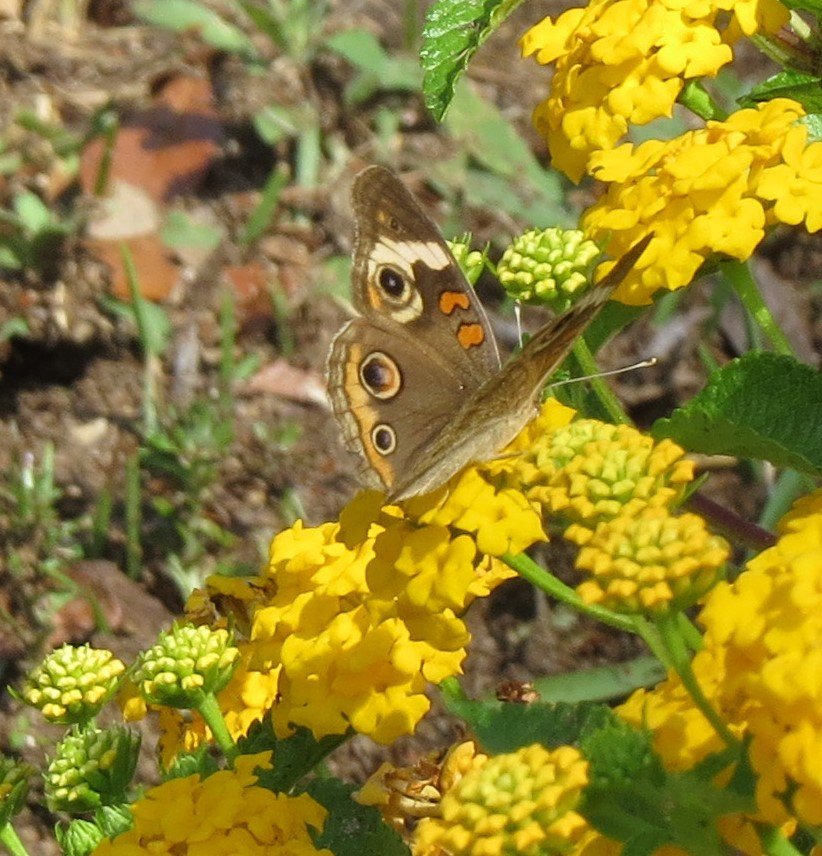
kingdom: Animalia
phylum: Arthropoda
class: Insecta
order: Lepidoptera
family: Nymphalidae
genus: Junonia
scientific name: Junonia coenia
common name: Common Buckeye
